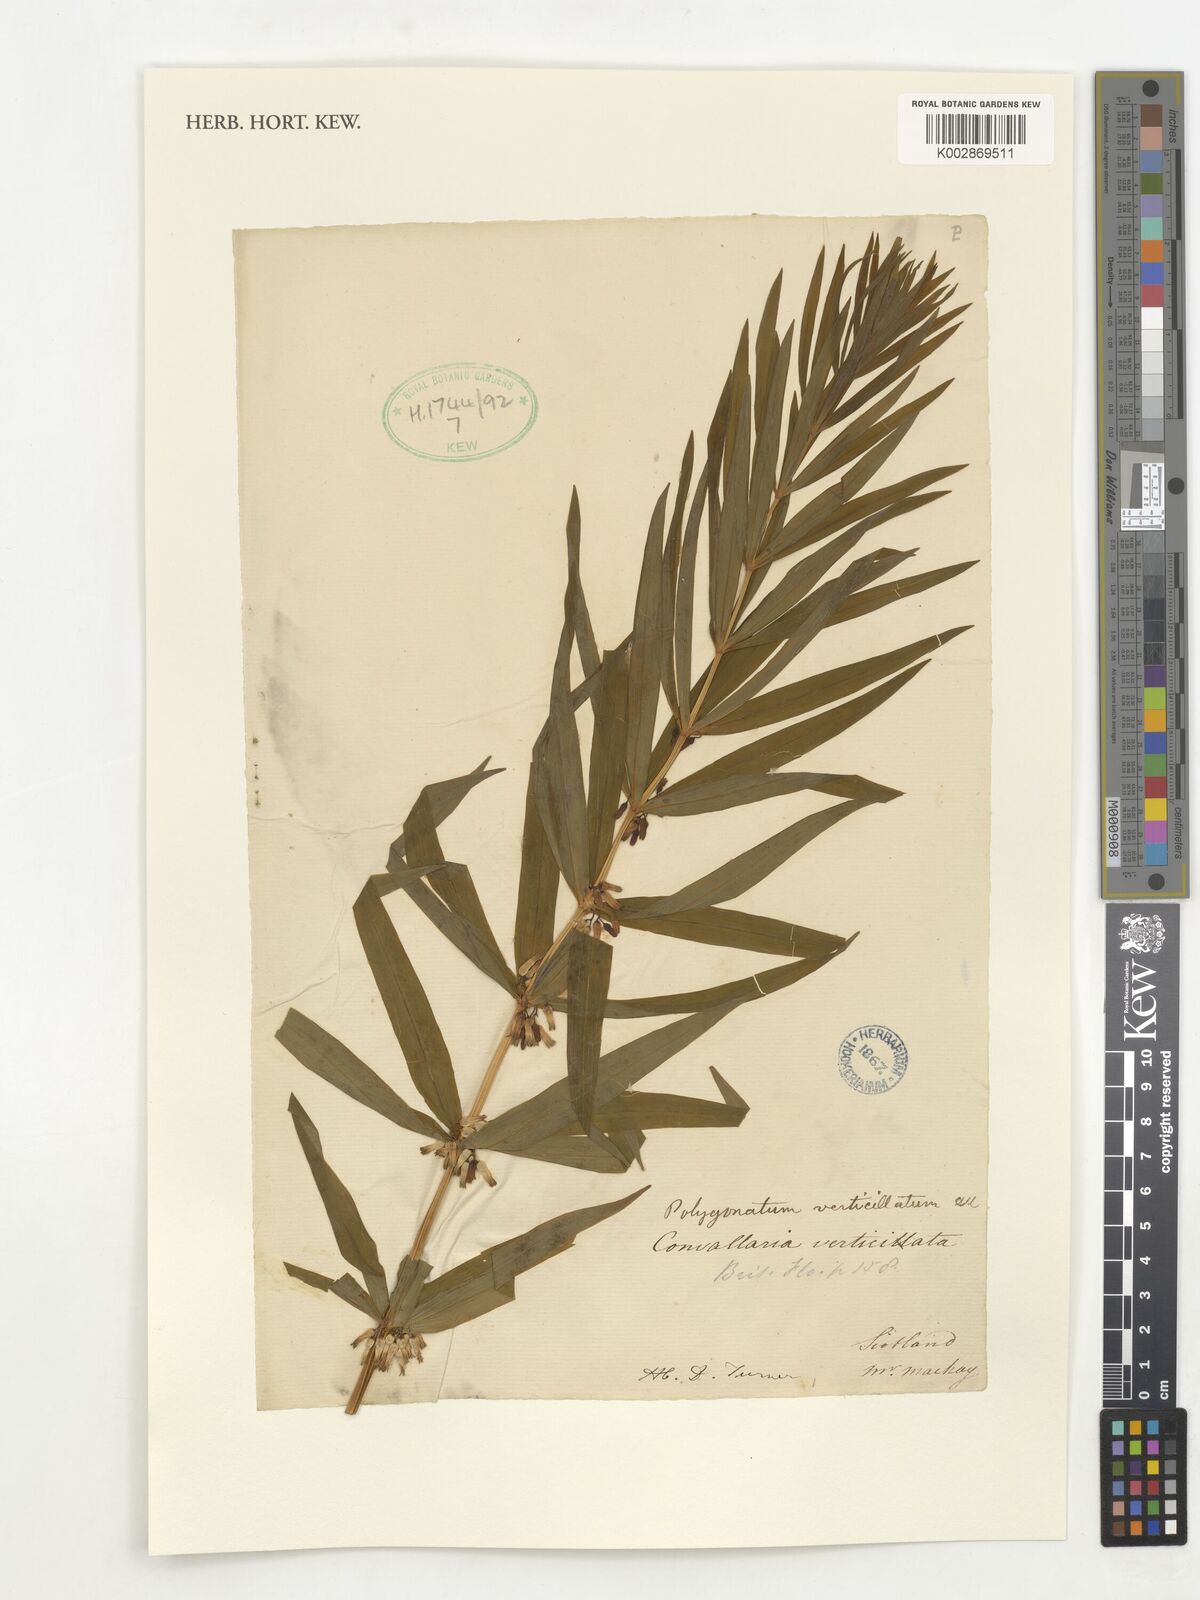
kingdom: Plantae
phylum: Tracheophyta
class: Liliopsida
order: Asparagales
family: Asparagaceae
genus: Polygonatum
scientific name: Polygonatum verticillatum
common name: Whorled solomon's-seal
